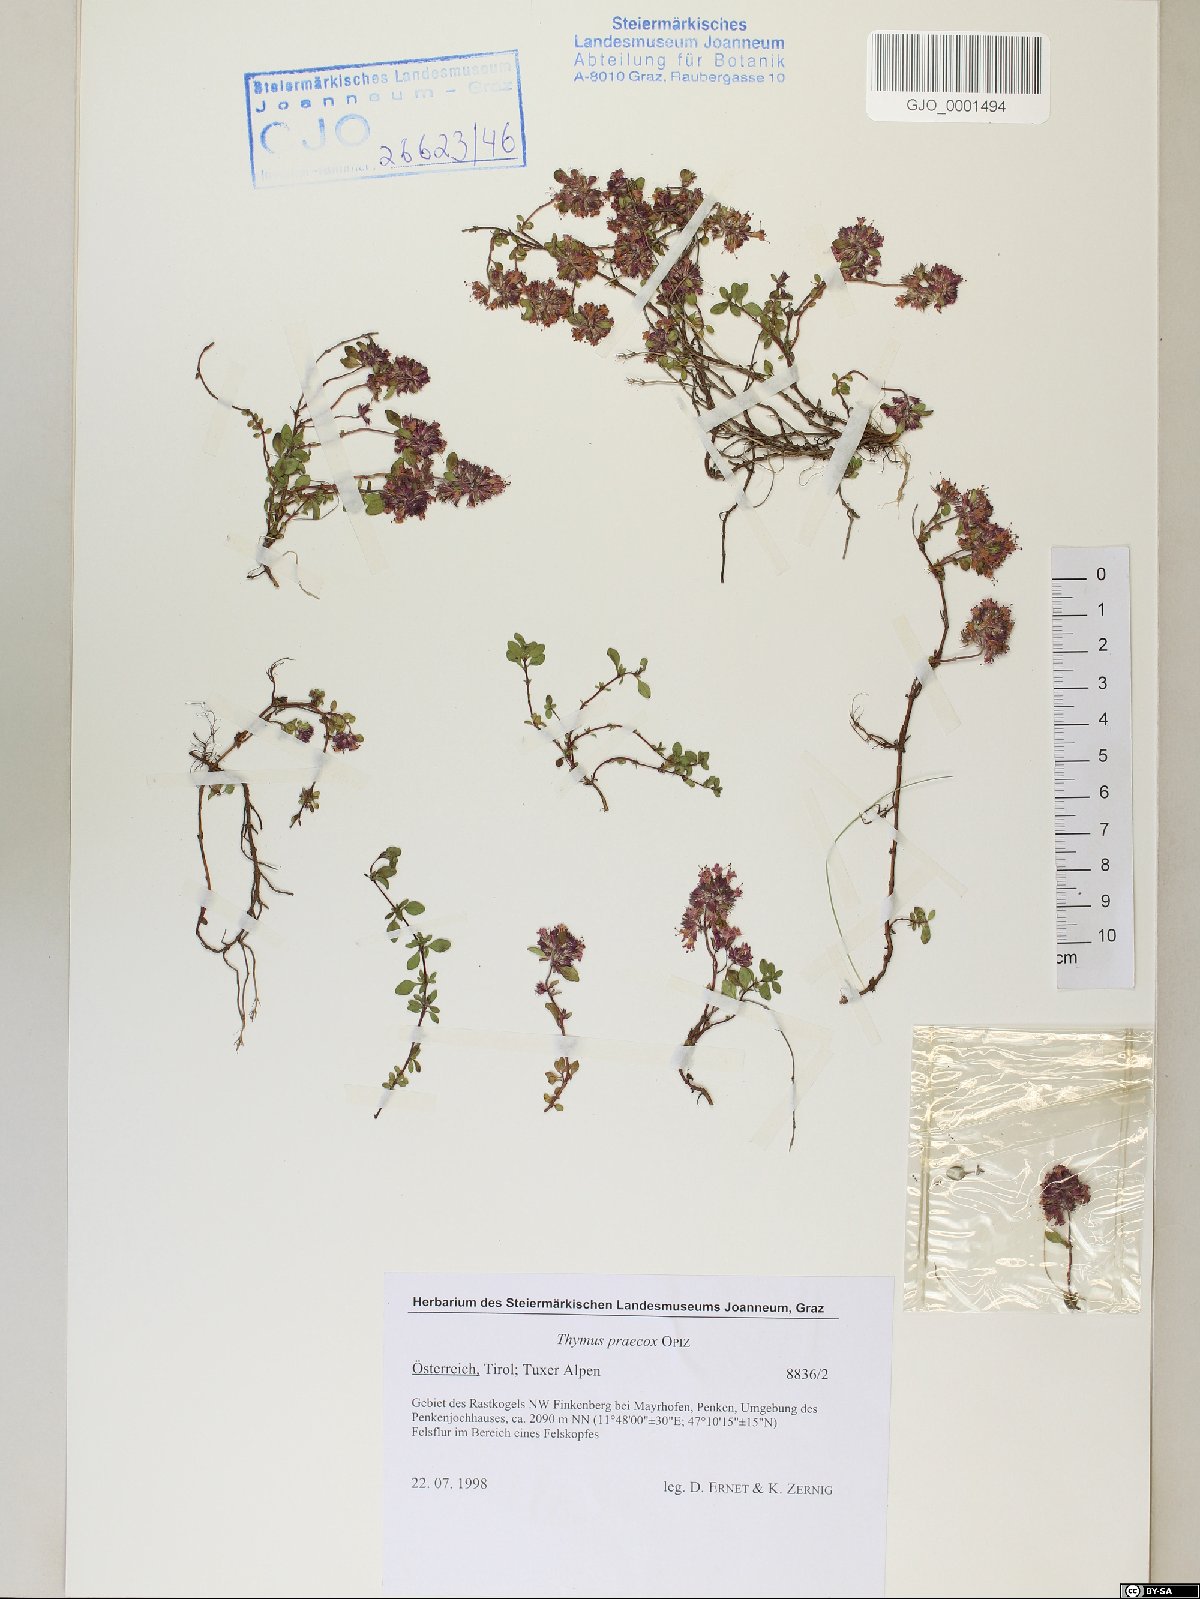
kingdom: Plantae
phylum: Tracheophyta
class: Magnoliopsida
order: Lamiales
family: Lamiaceae
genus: Thymus
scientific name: Thymus praecox
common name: Wild thyme
